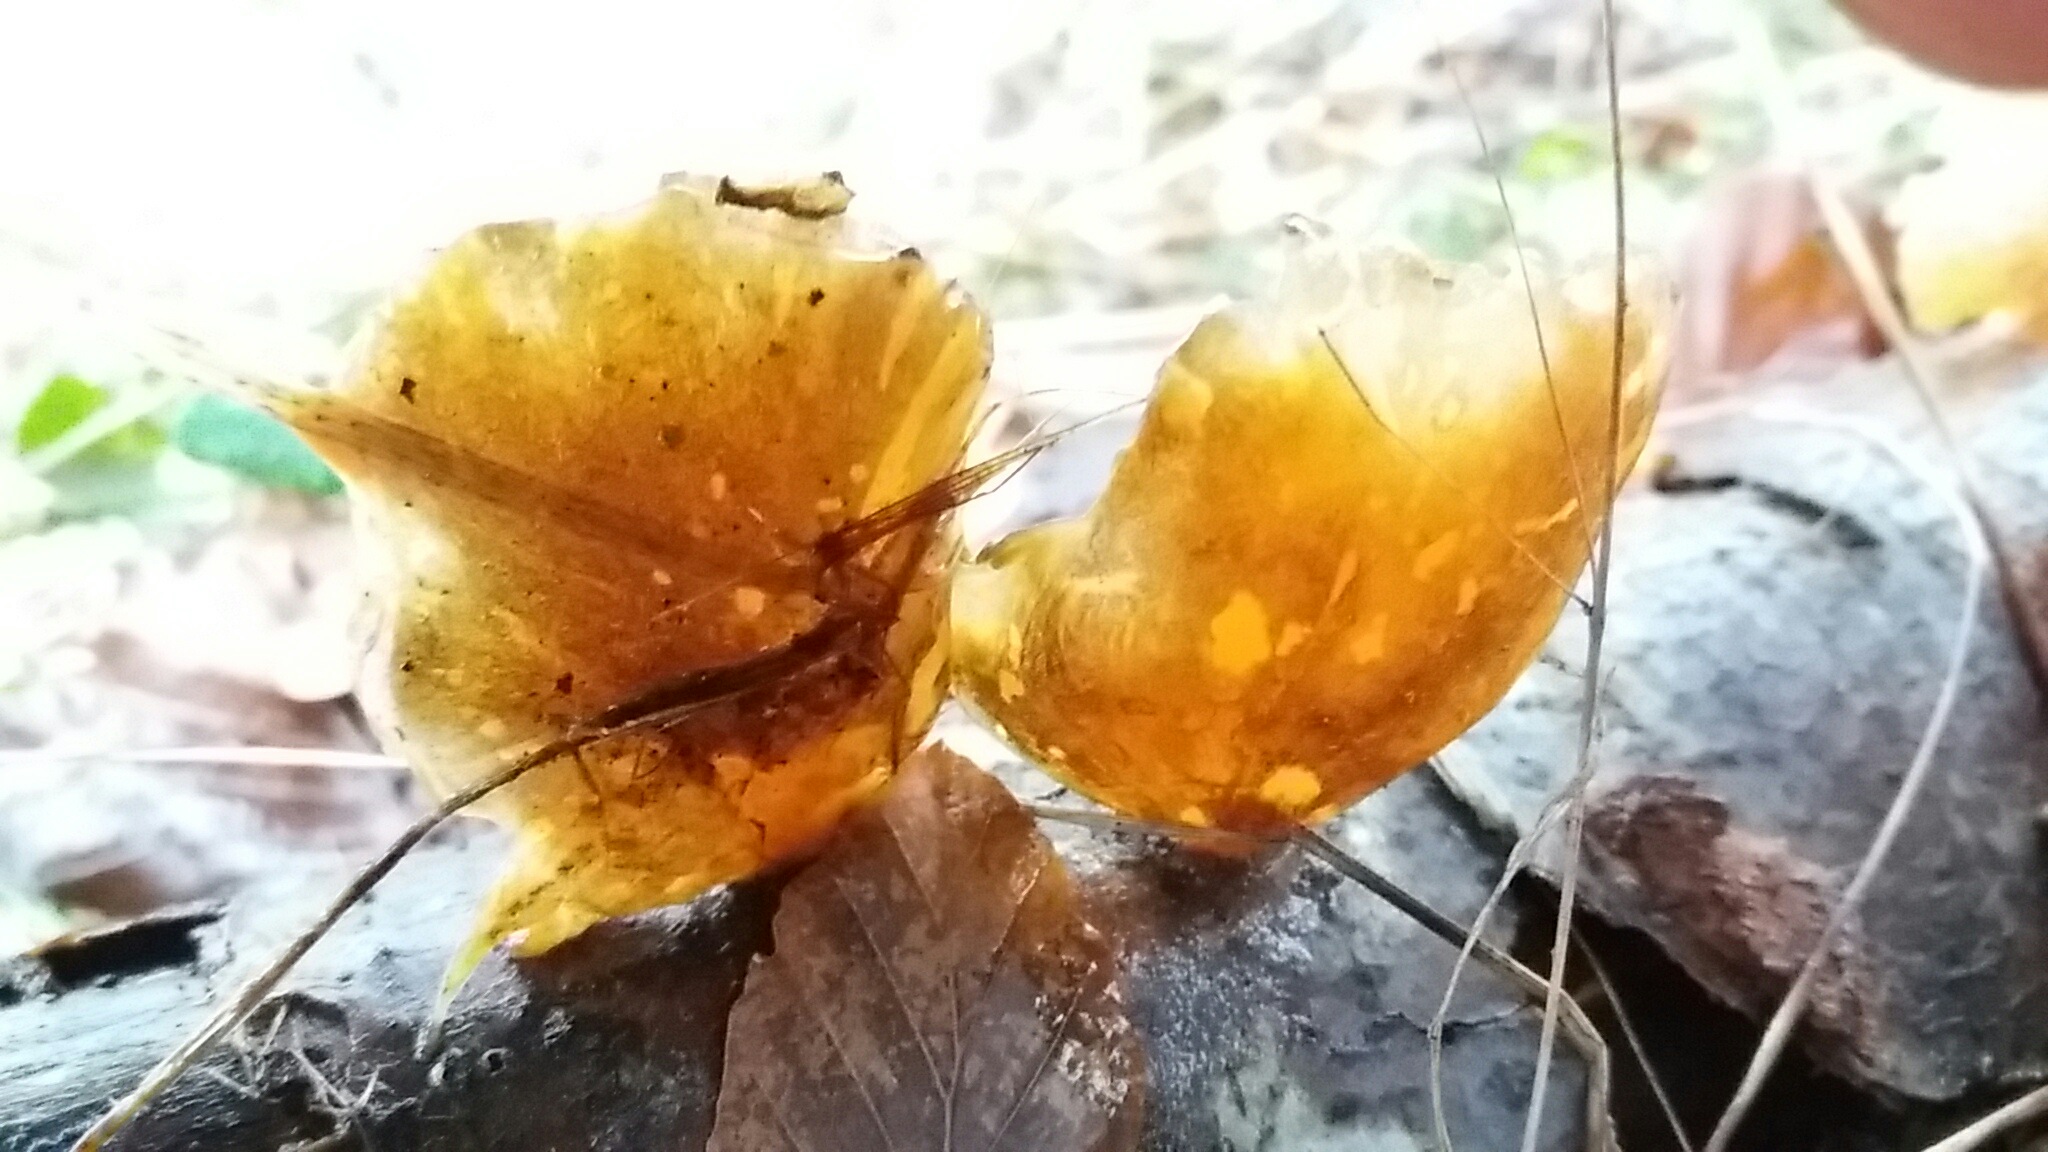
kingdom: Fungi
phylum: Basidiomycota
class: Agaricomycetes
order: Agaricales
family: Sarcomyxaceae
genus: Sarcomyxa
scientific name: Sarcomyxa serotina
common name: gummihat
